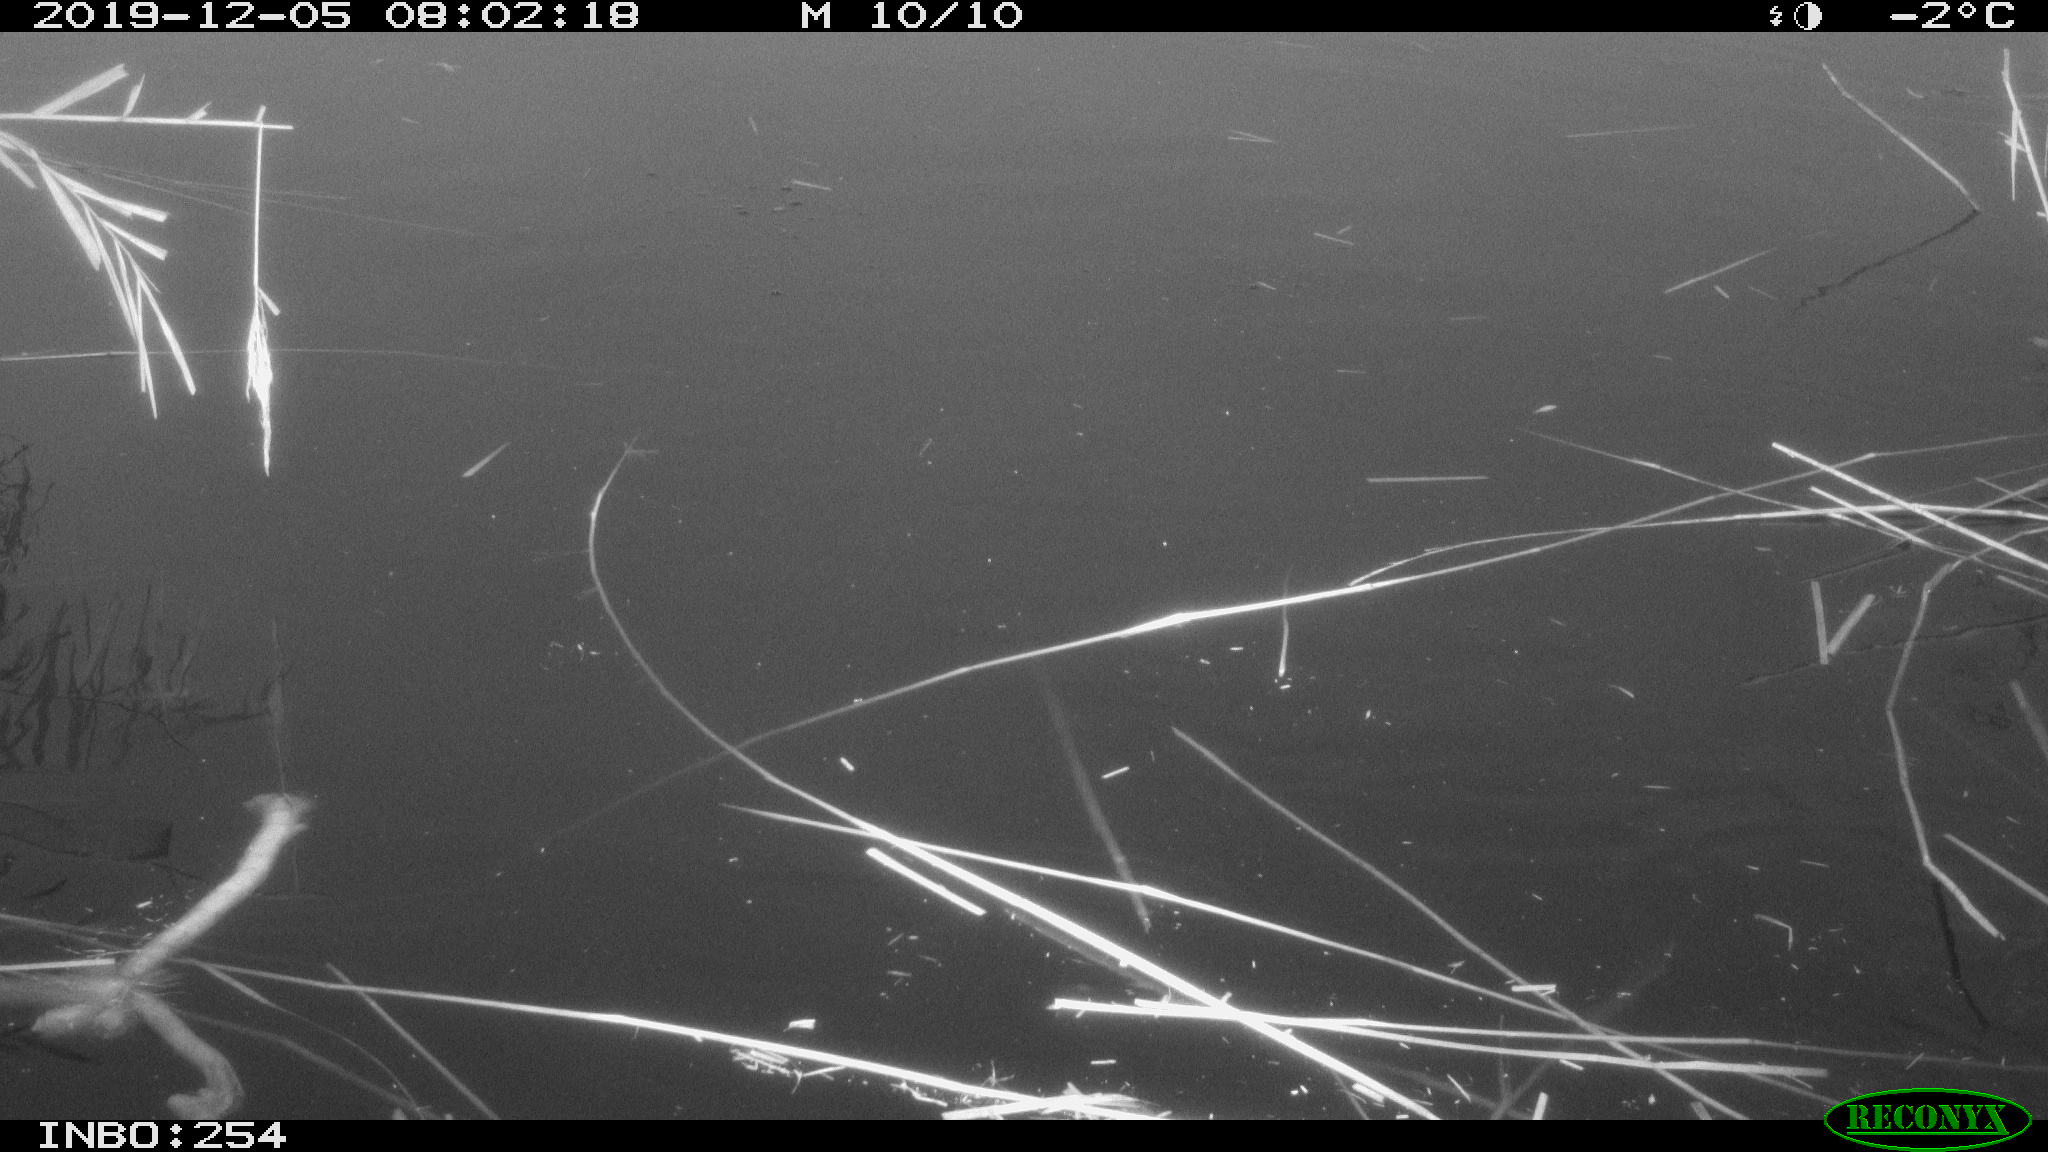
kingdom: Animalia
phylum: Chordata
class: Aves
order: Gruiformes
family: Rallidae
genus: Gallinula
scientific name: Gallinula chloropus
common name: Common moorhen
